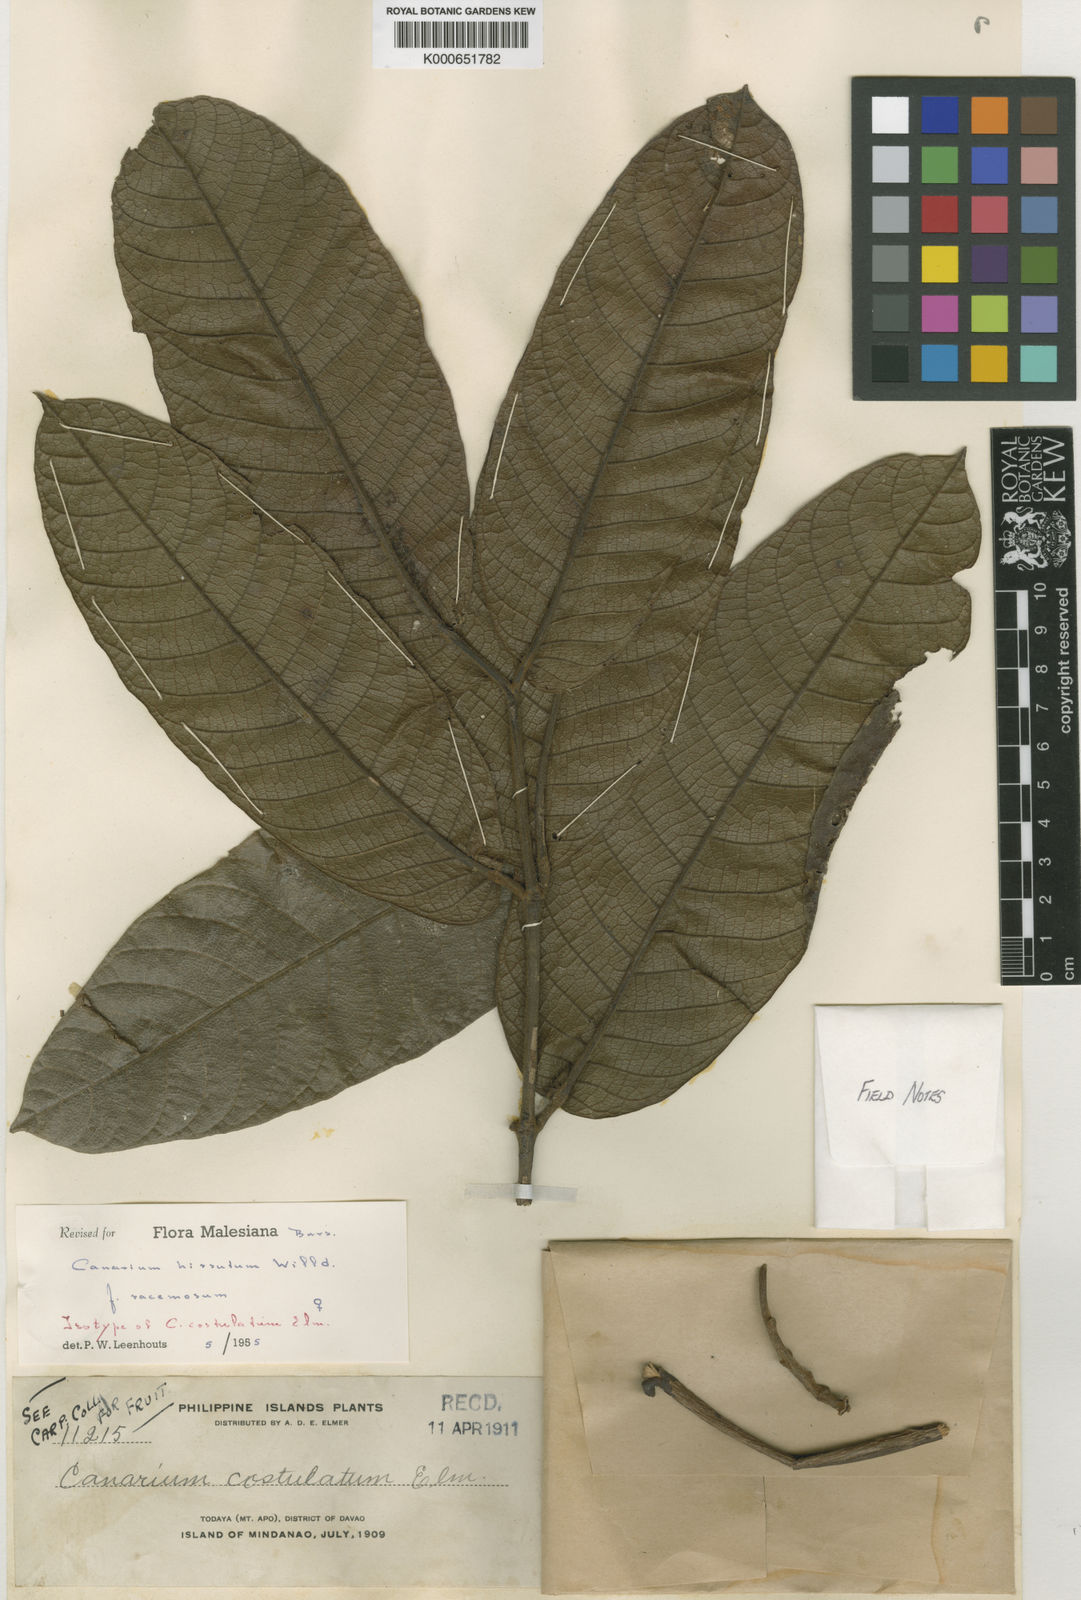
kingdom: Plantae
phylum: Tracheophyta
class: Magnoliopsida
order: Sapindales
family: Burseraceae
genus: Canarium
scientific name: Canarium hirsutum
